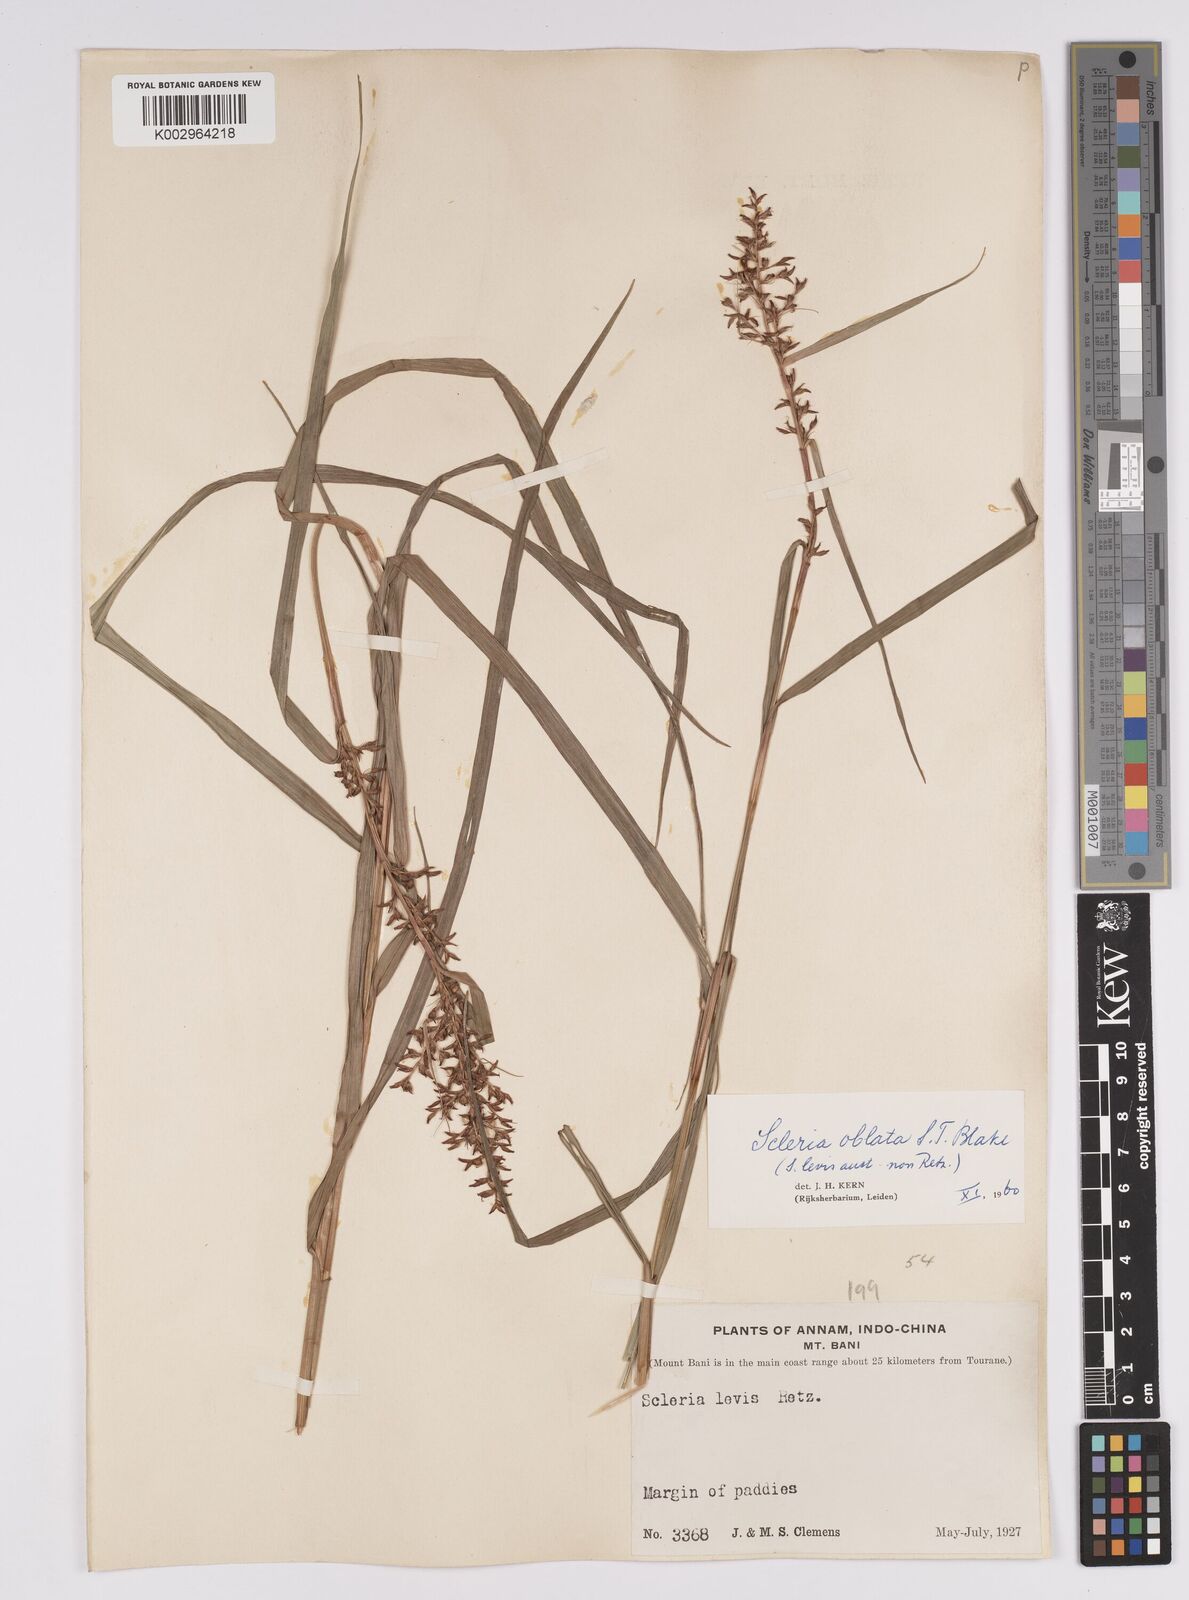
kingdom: Plantae
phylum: Tracheophyta
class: Liliopsida
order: Poales
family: Cyperaceae
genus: Scleria
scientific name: Scleria oblata
